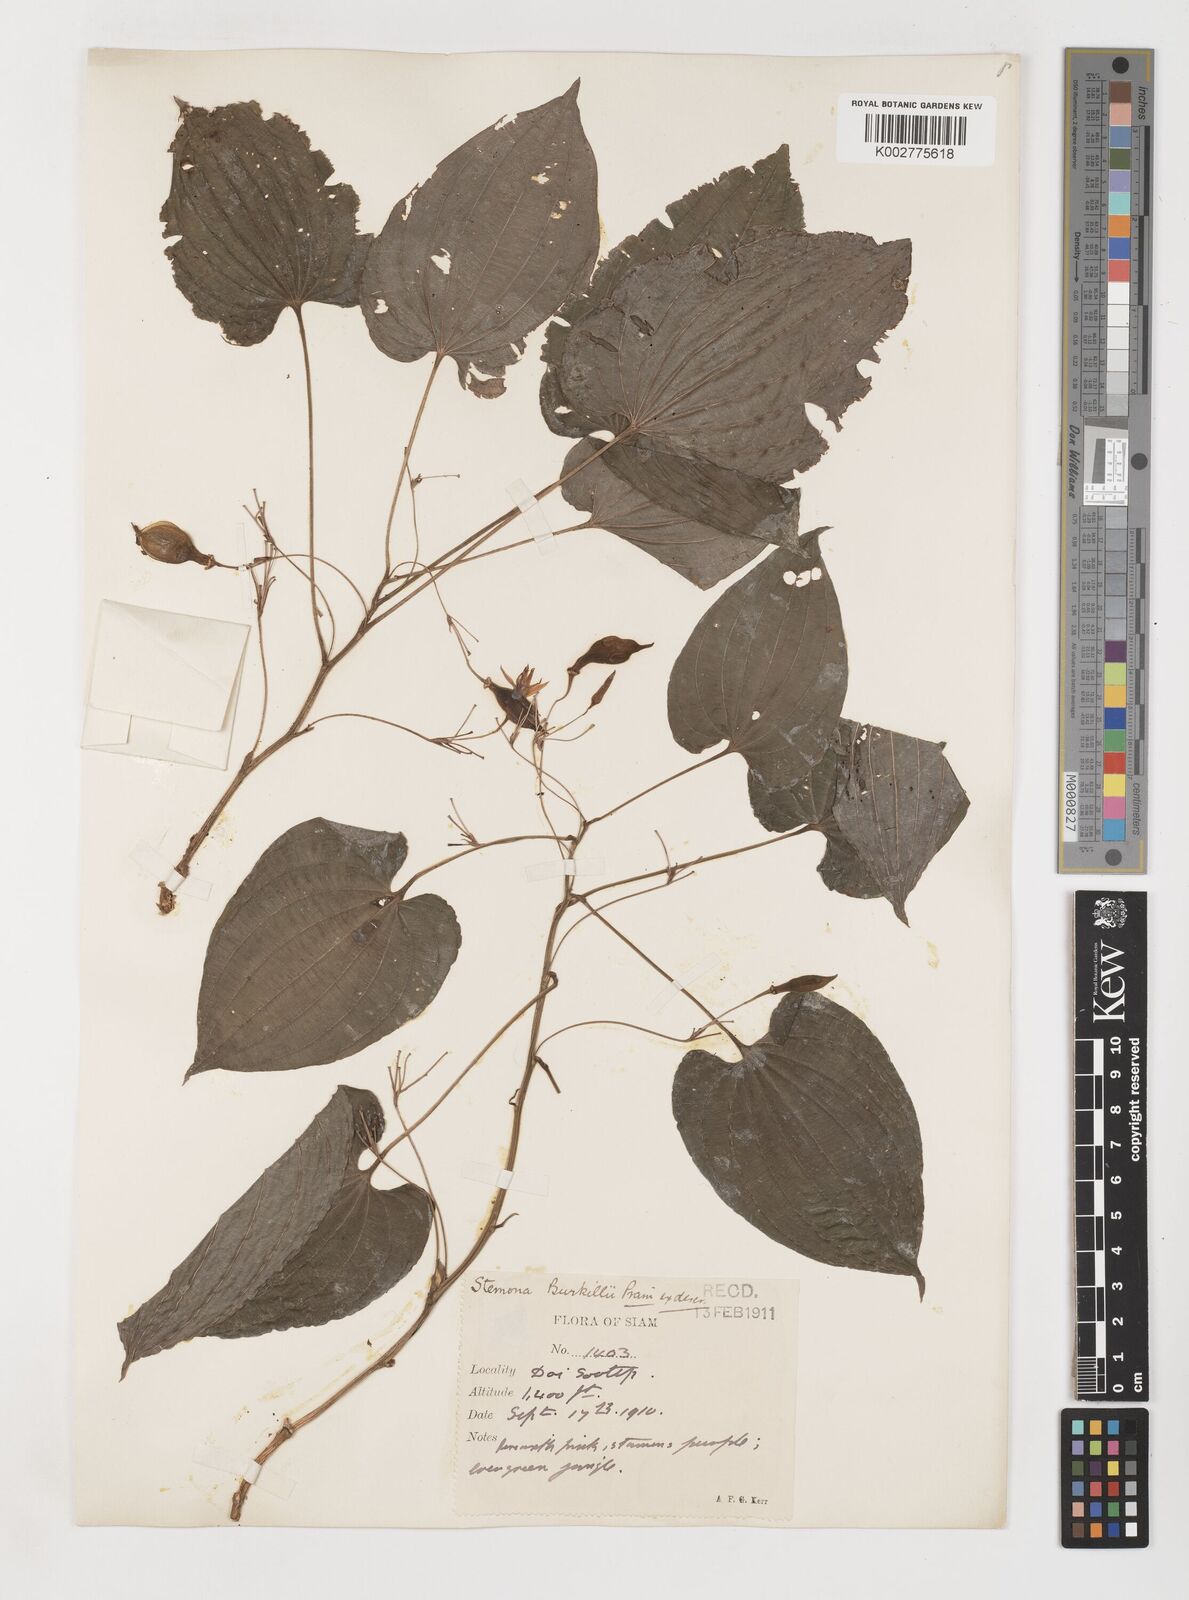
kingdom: Plantae
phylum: Tracheophyta
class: Liliopsida
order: Pandanales
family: Stemonaceae
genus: Stemona
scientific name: Stemona burkillii
